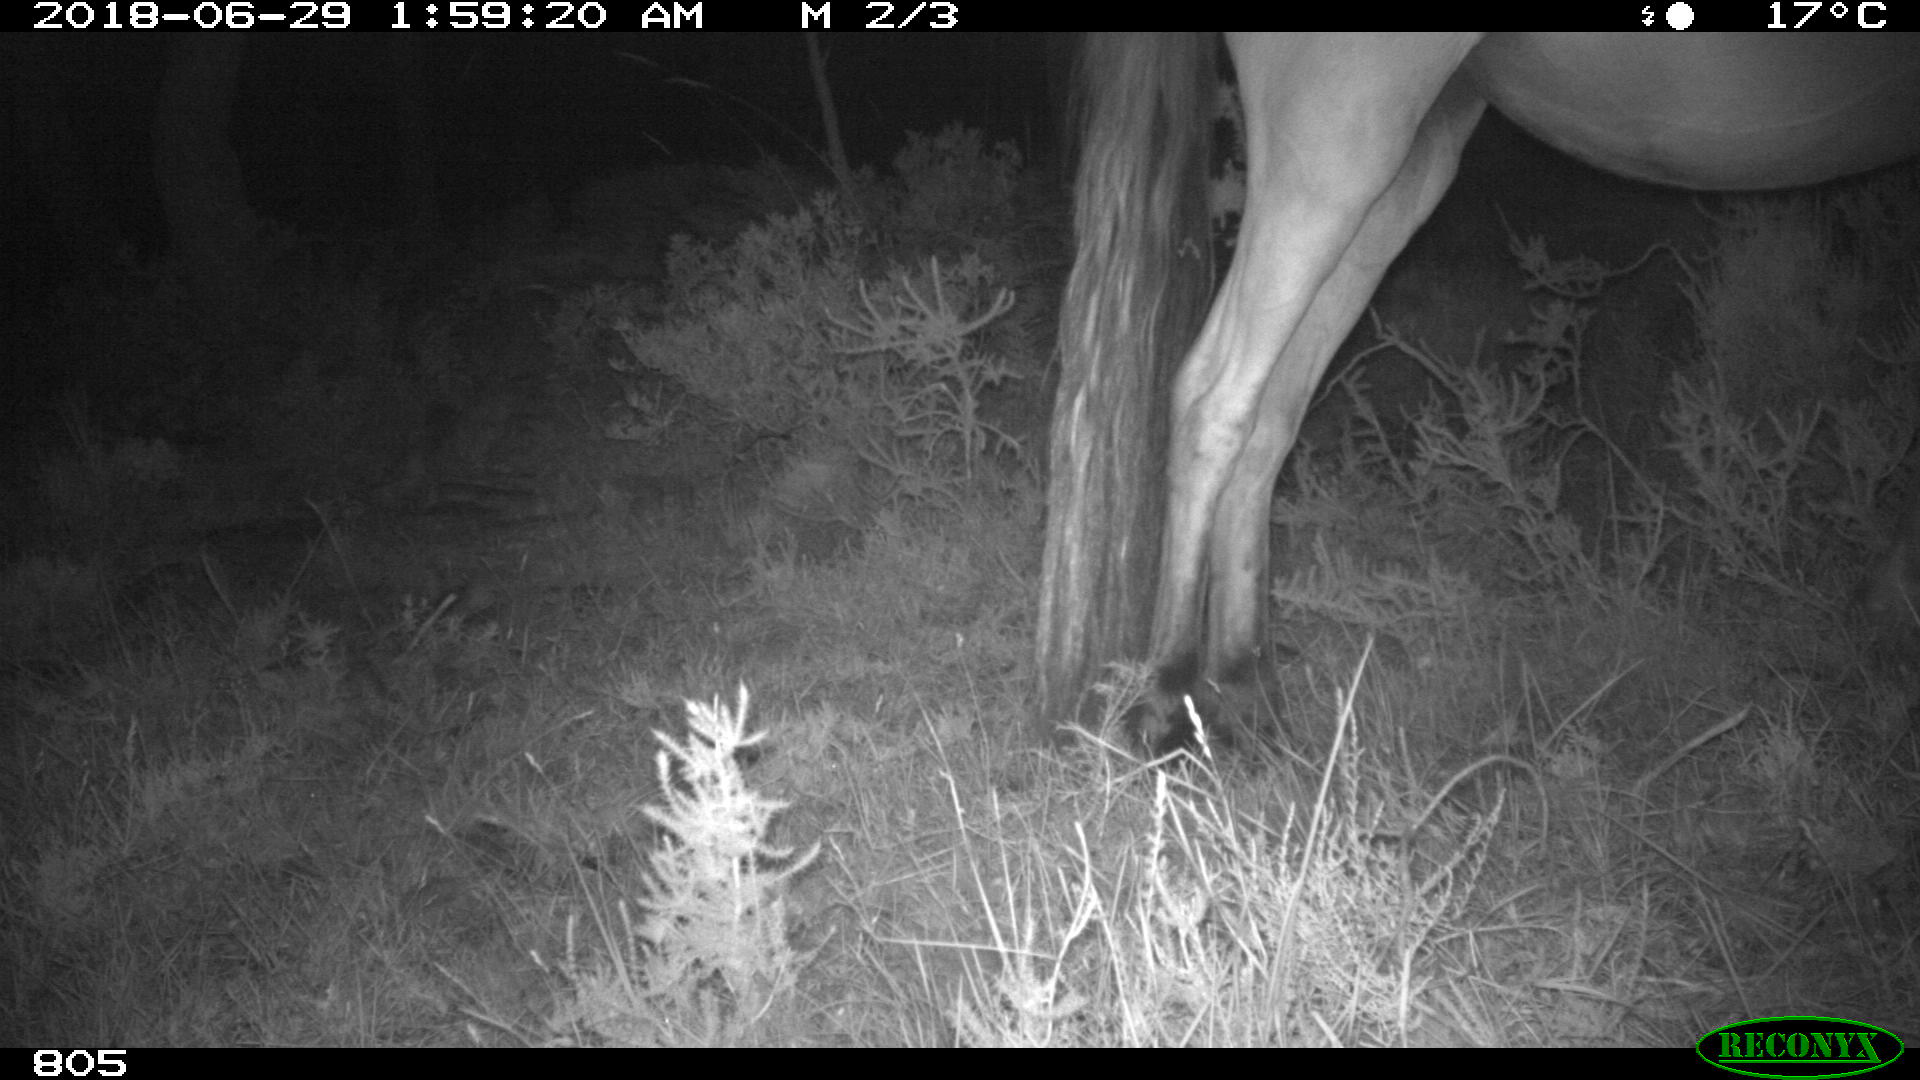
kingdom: Animalia
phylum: Chordata
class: Mammalia
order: Perissodactyla
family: Equidae
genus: Equus
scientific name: Equus caballus
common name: Horse
